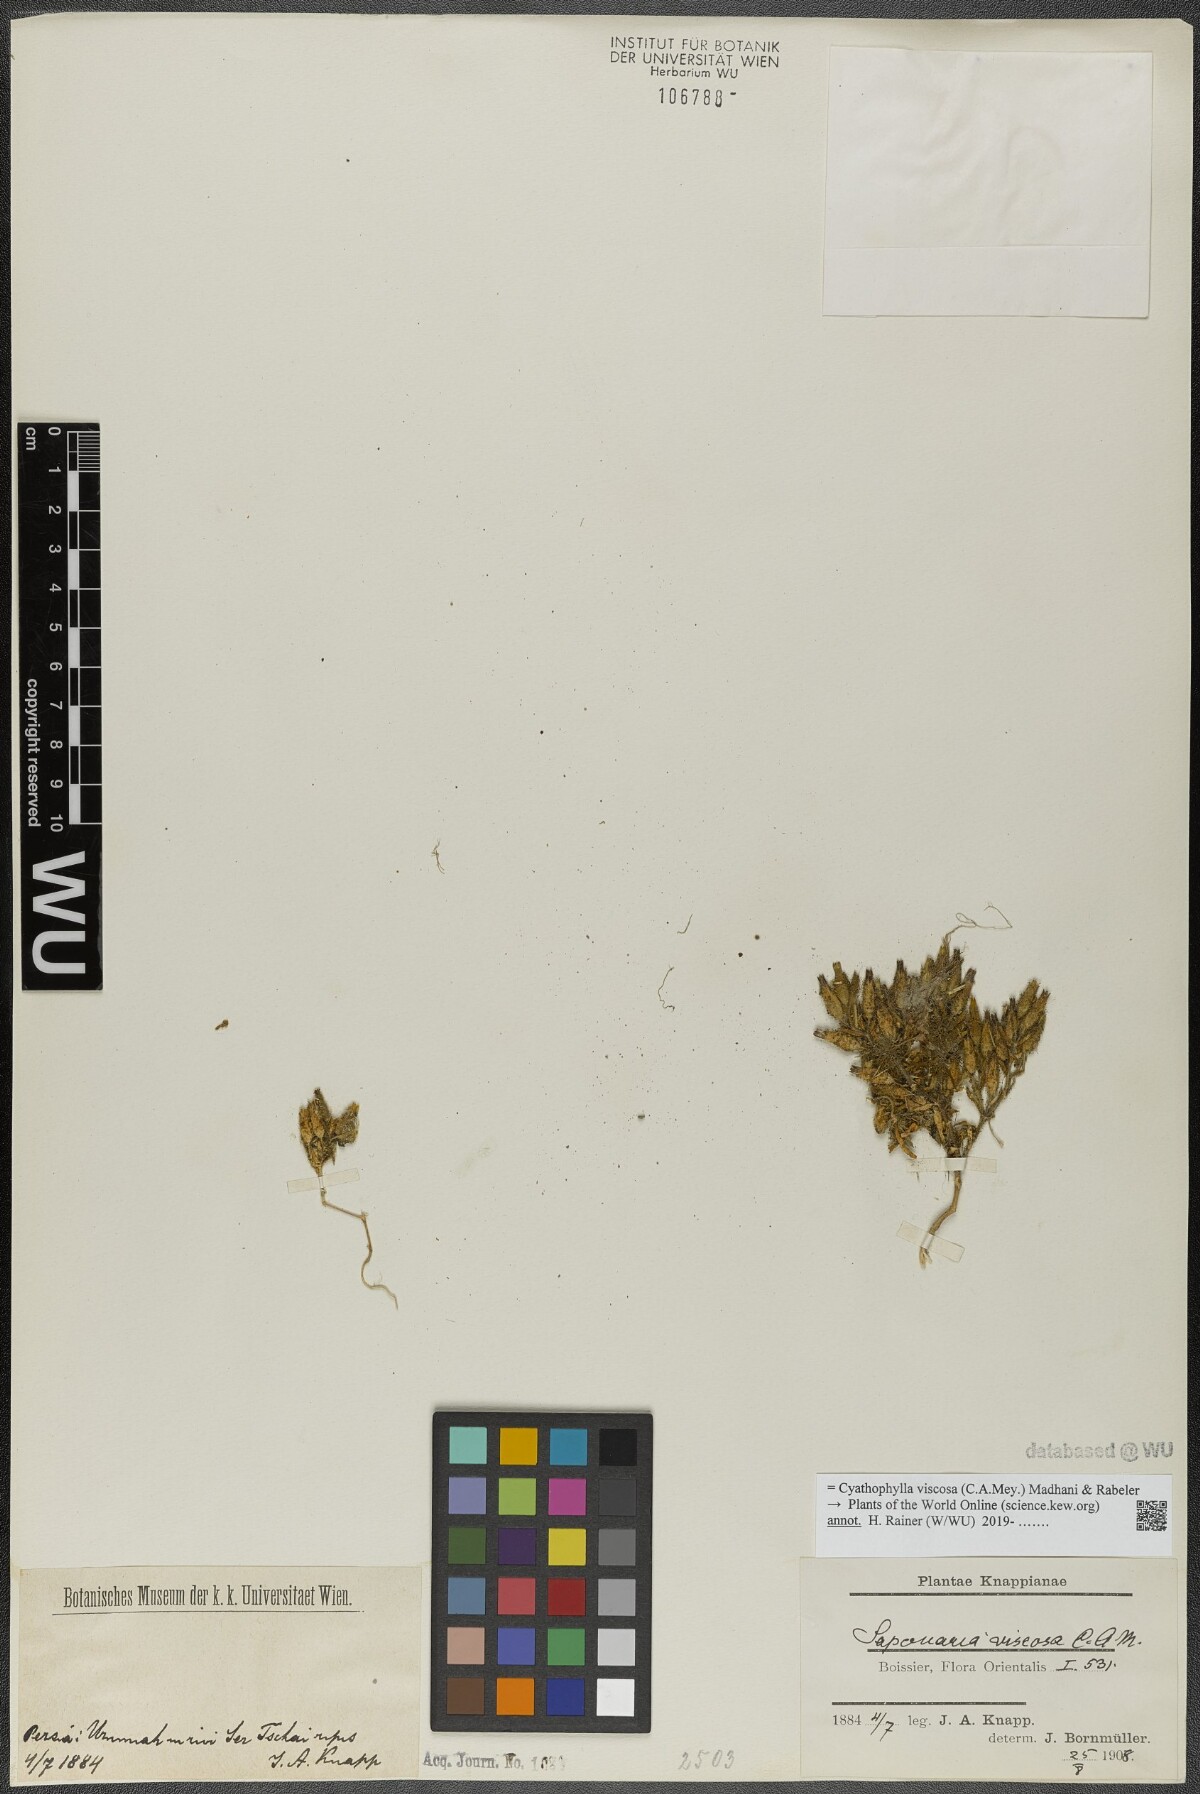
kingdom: Plantae
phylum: Tracheophyta
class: Magnoliopsida
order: Caryophyllales
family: Caryophyllaceae
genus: Cyathophylla
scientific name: Cyathophylla viscosa
